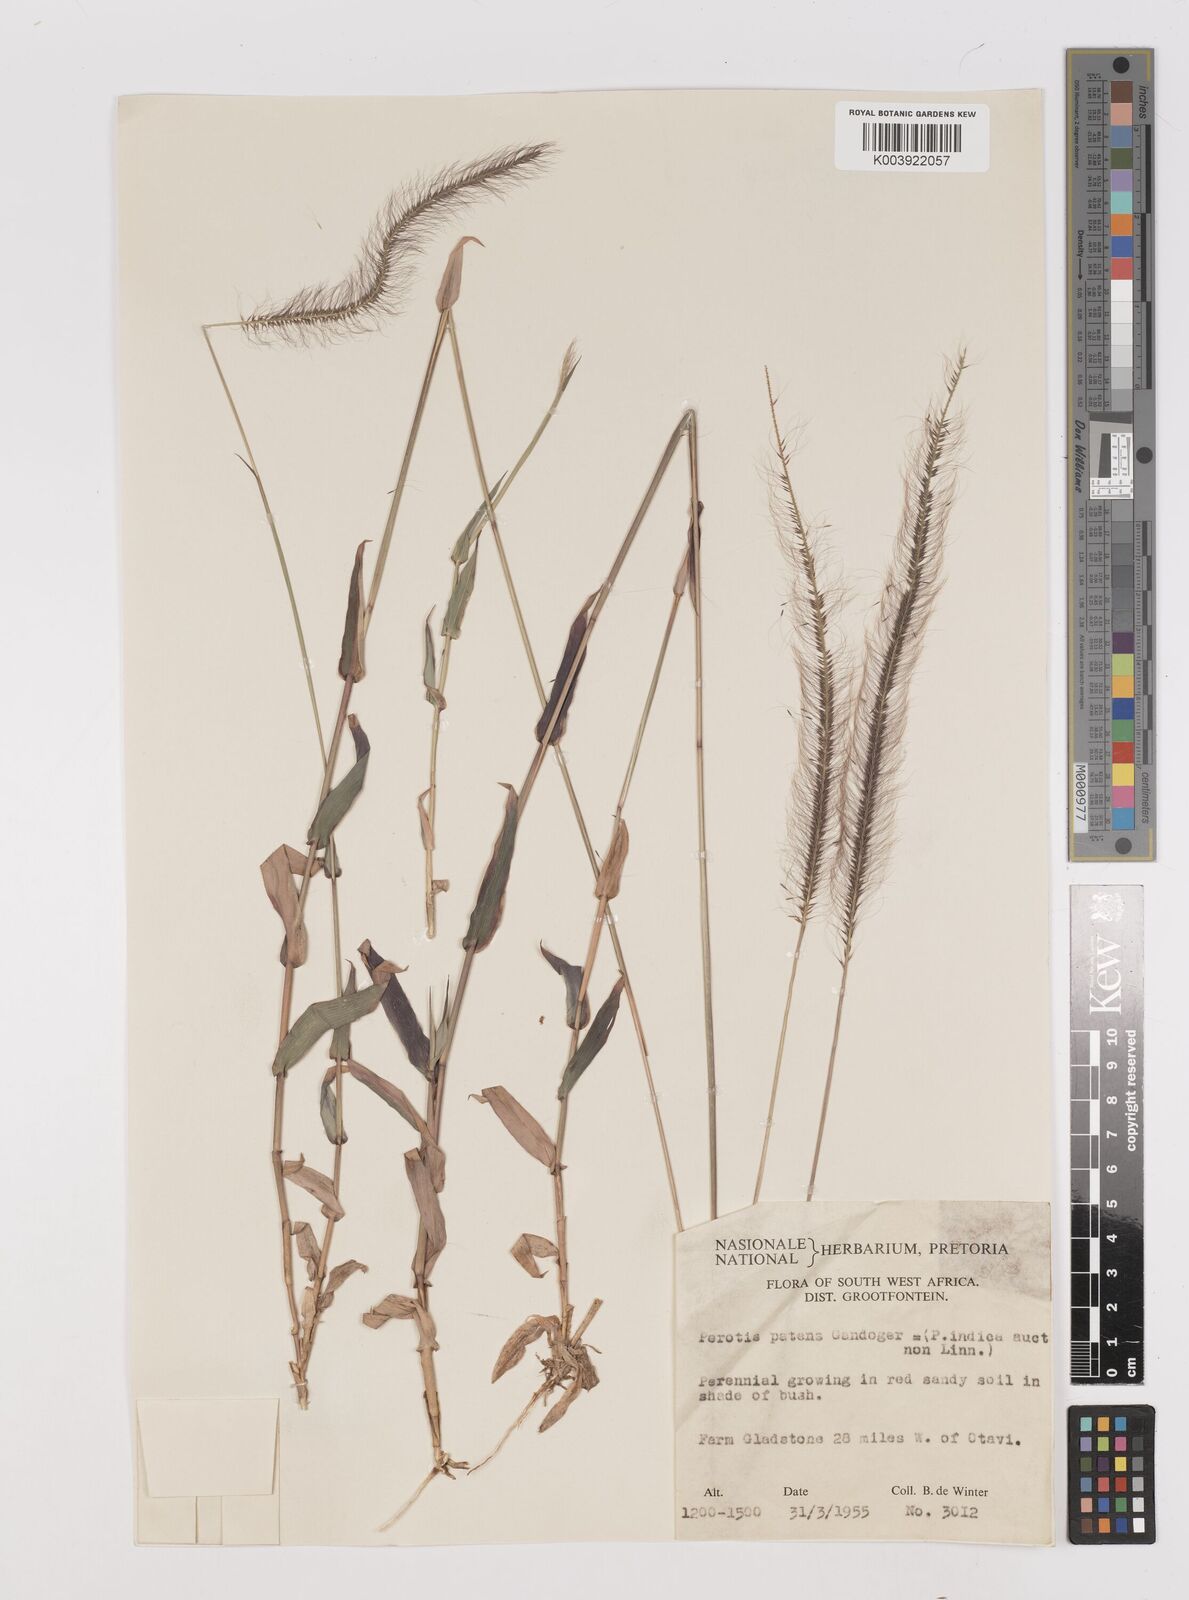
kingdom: Plantae
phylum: Tracheophyta
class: Liliopsida
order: Poales
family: Poaceae
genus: Perotis
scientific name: Perotis patens
